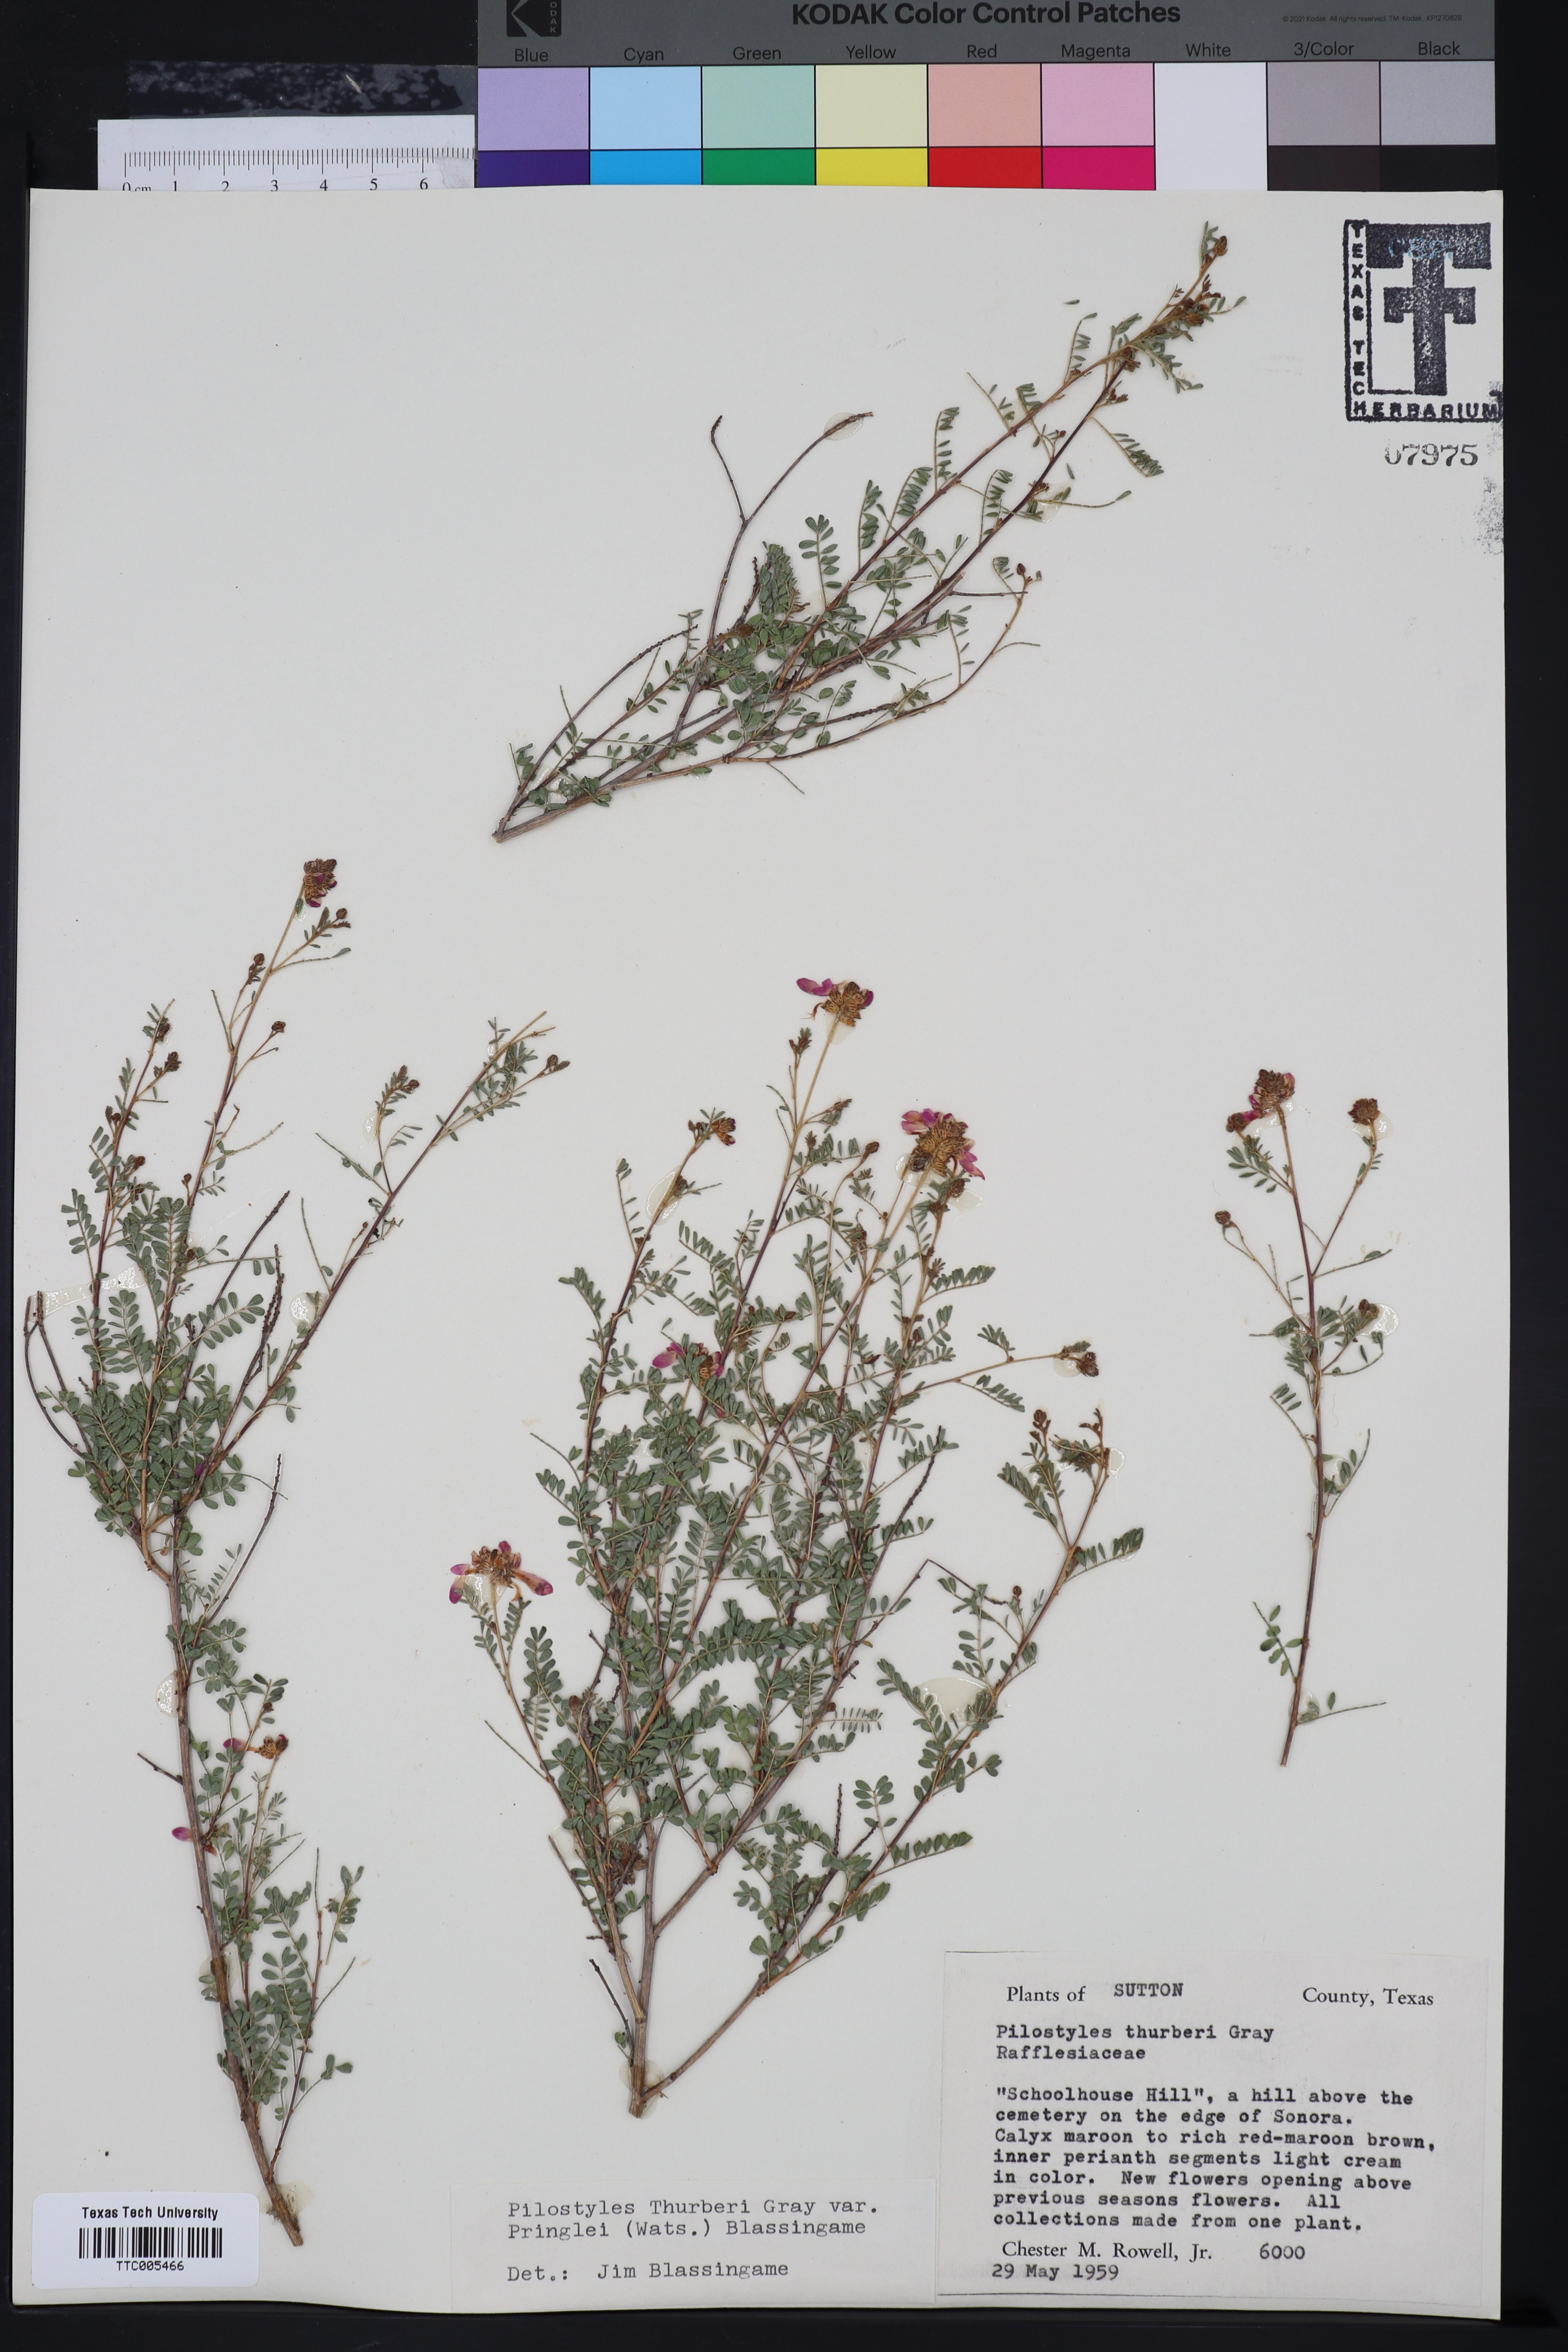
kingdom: Plantae
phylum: Tracheophyta
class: Magnoliopsida
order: Cucurbitales
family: Apodanthaceae
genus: Pilostyles
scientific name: Pilostyles thurberi
